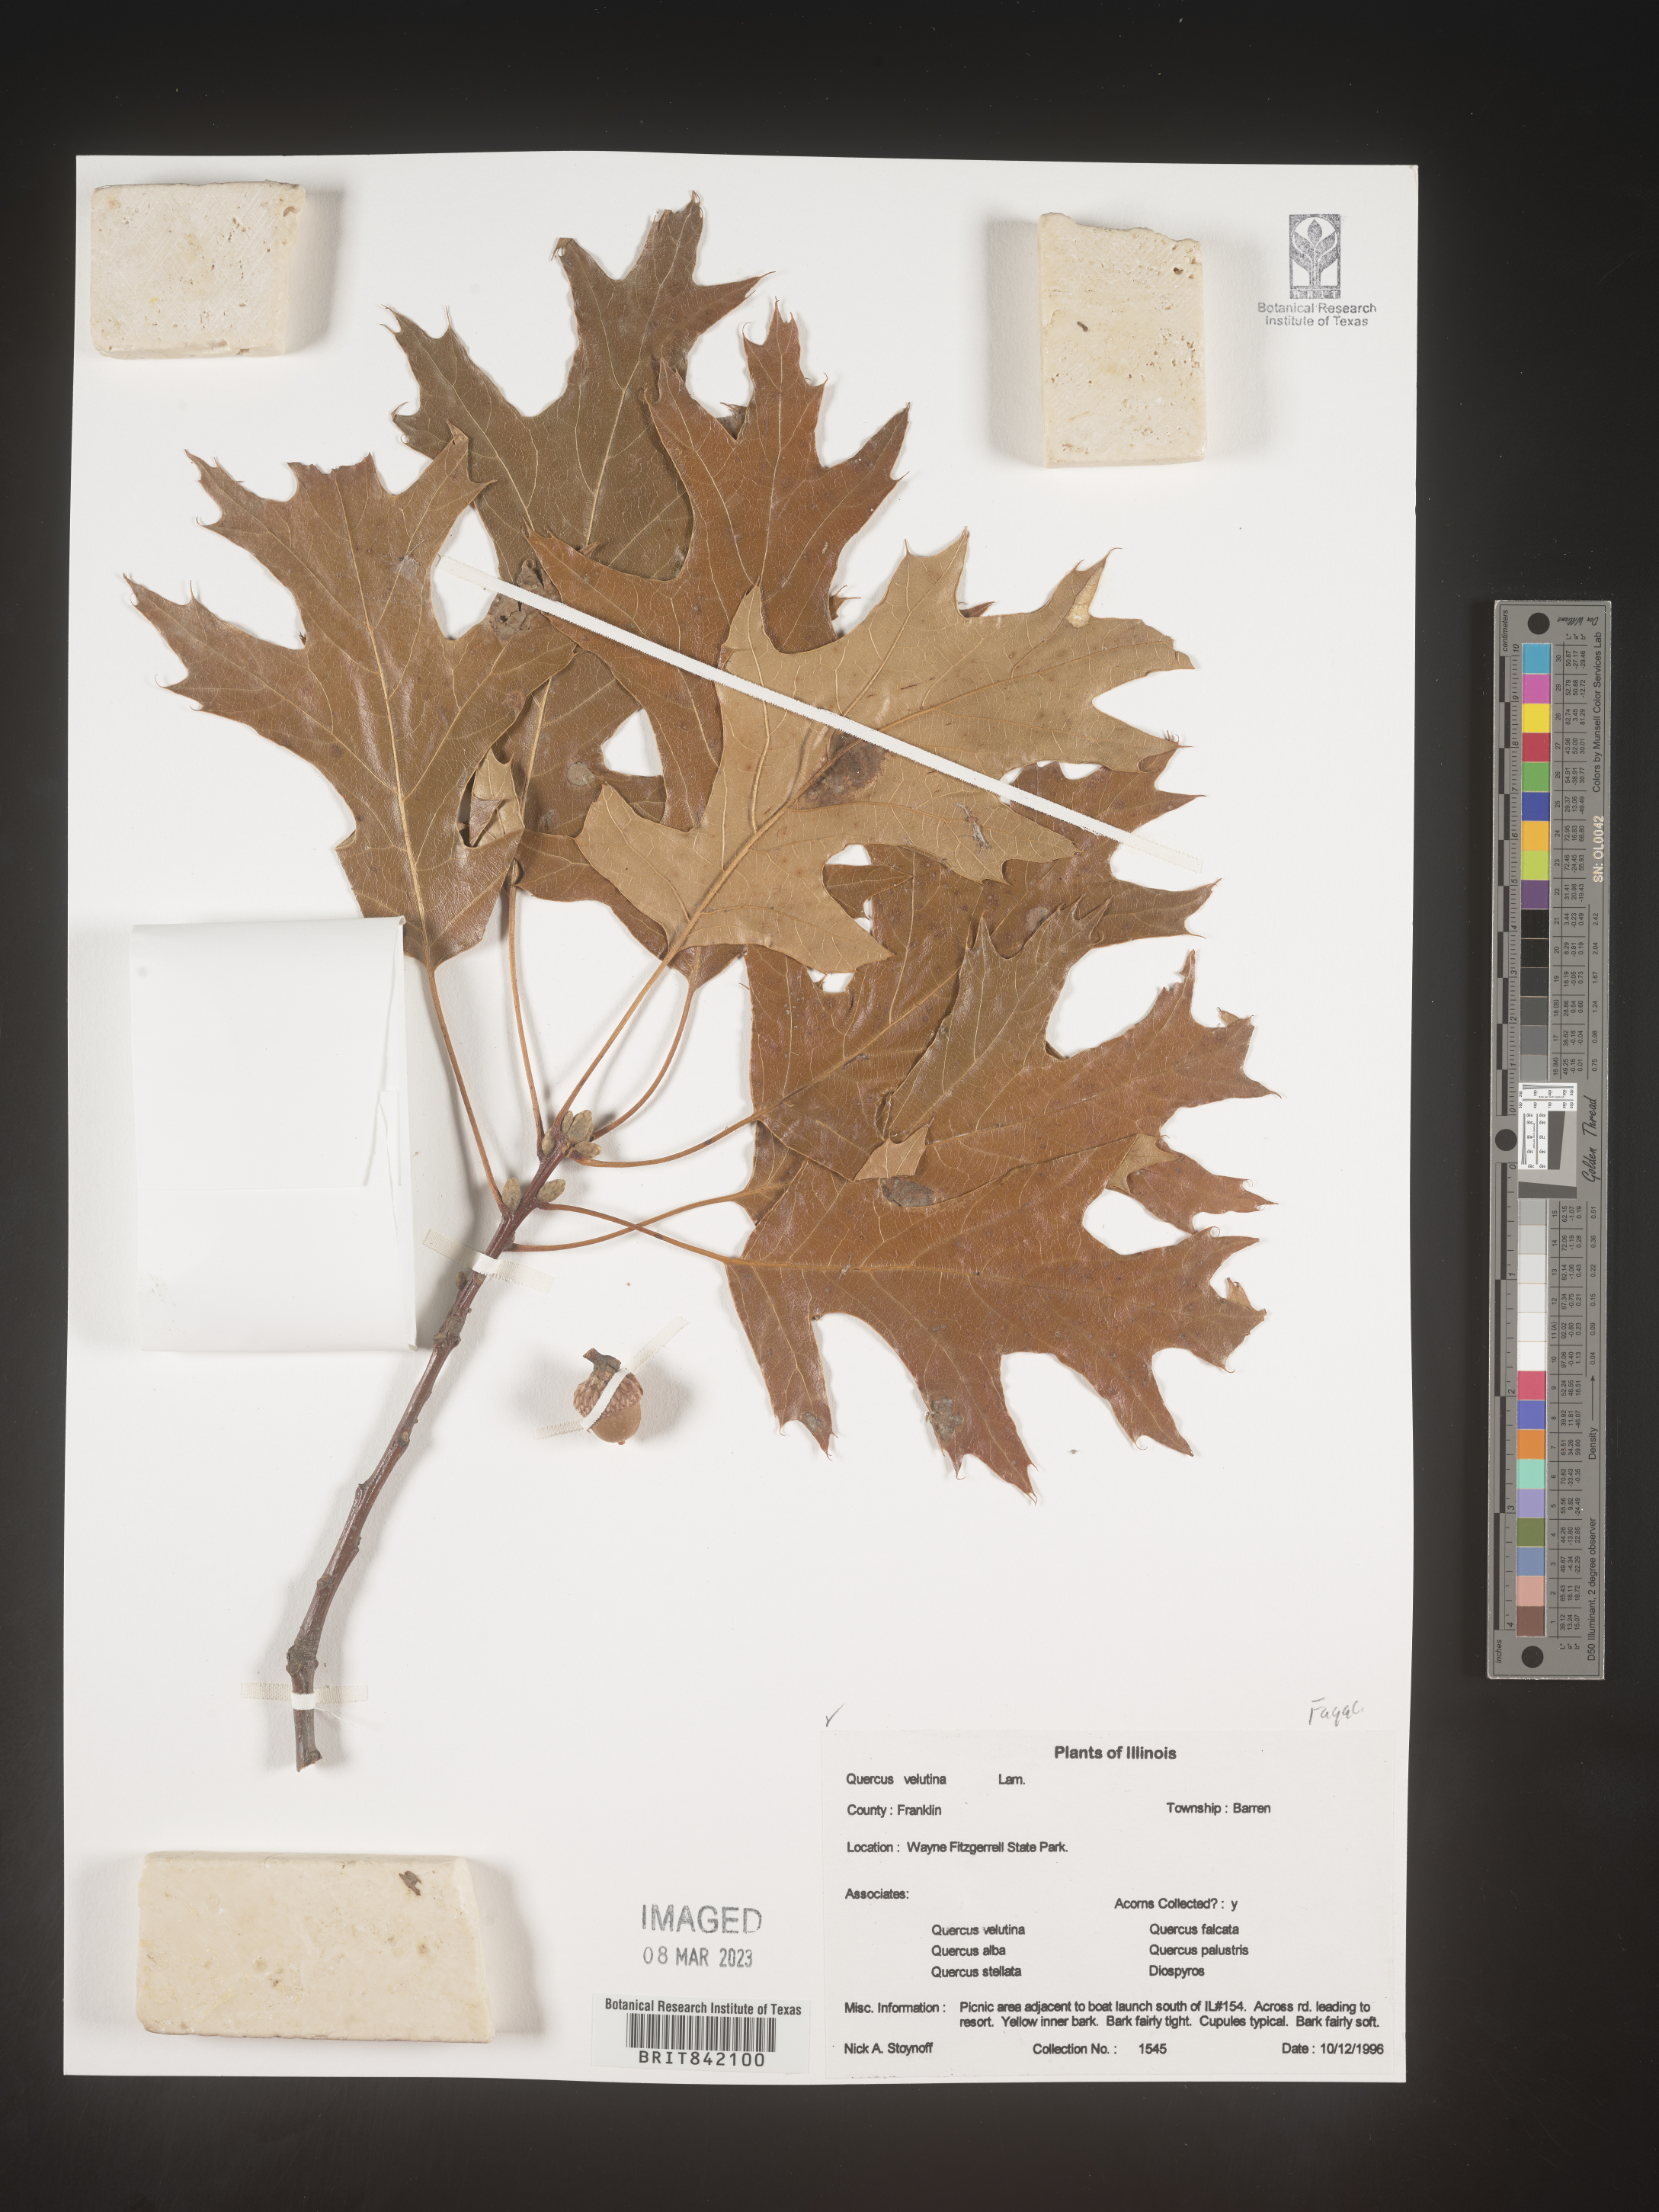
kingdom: Plantae
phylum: Tracheophyta
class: Magnoliopsida
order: Fagales
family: Fagaceae
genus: Quercus
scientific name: Quercus velutina
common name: Black oak
